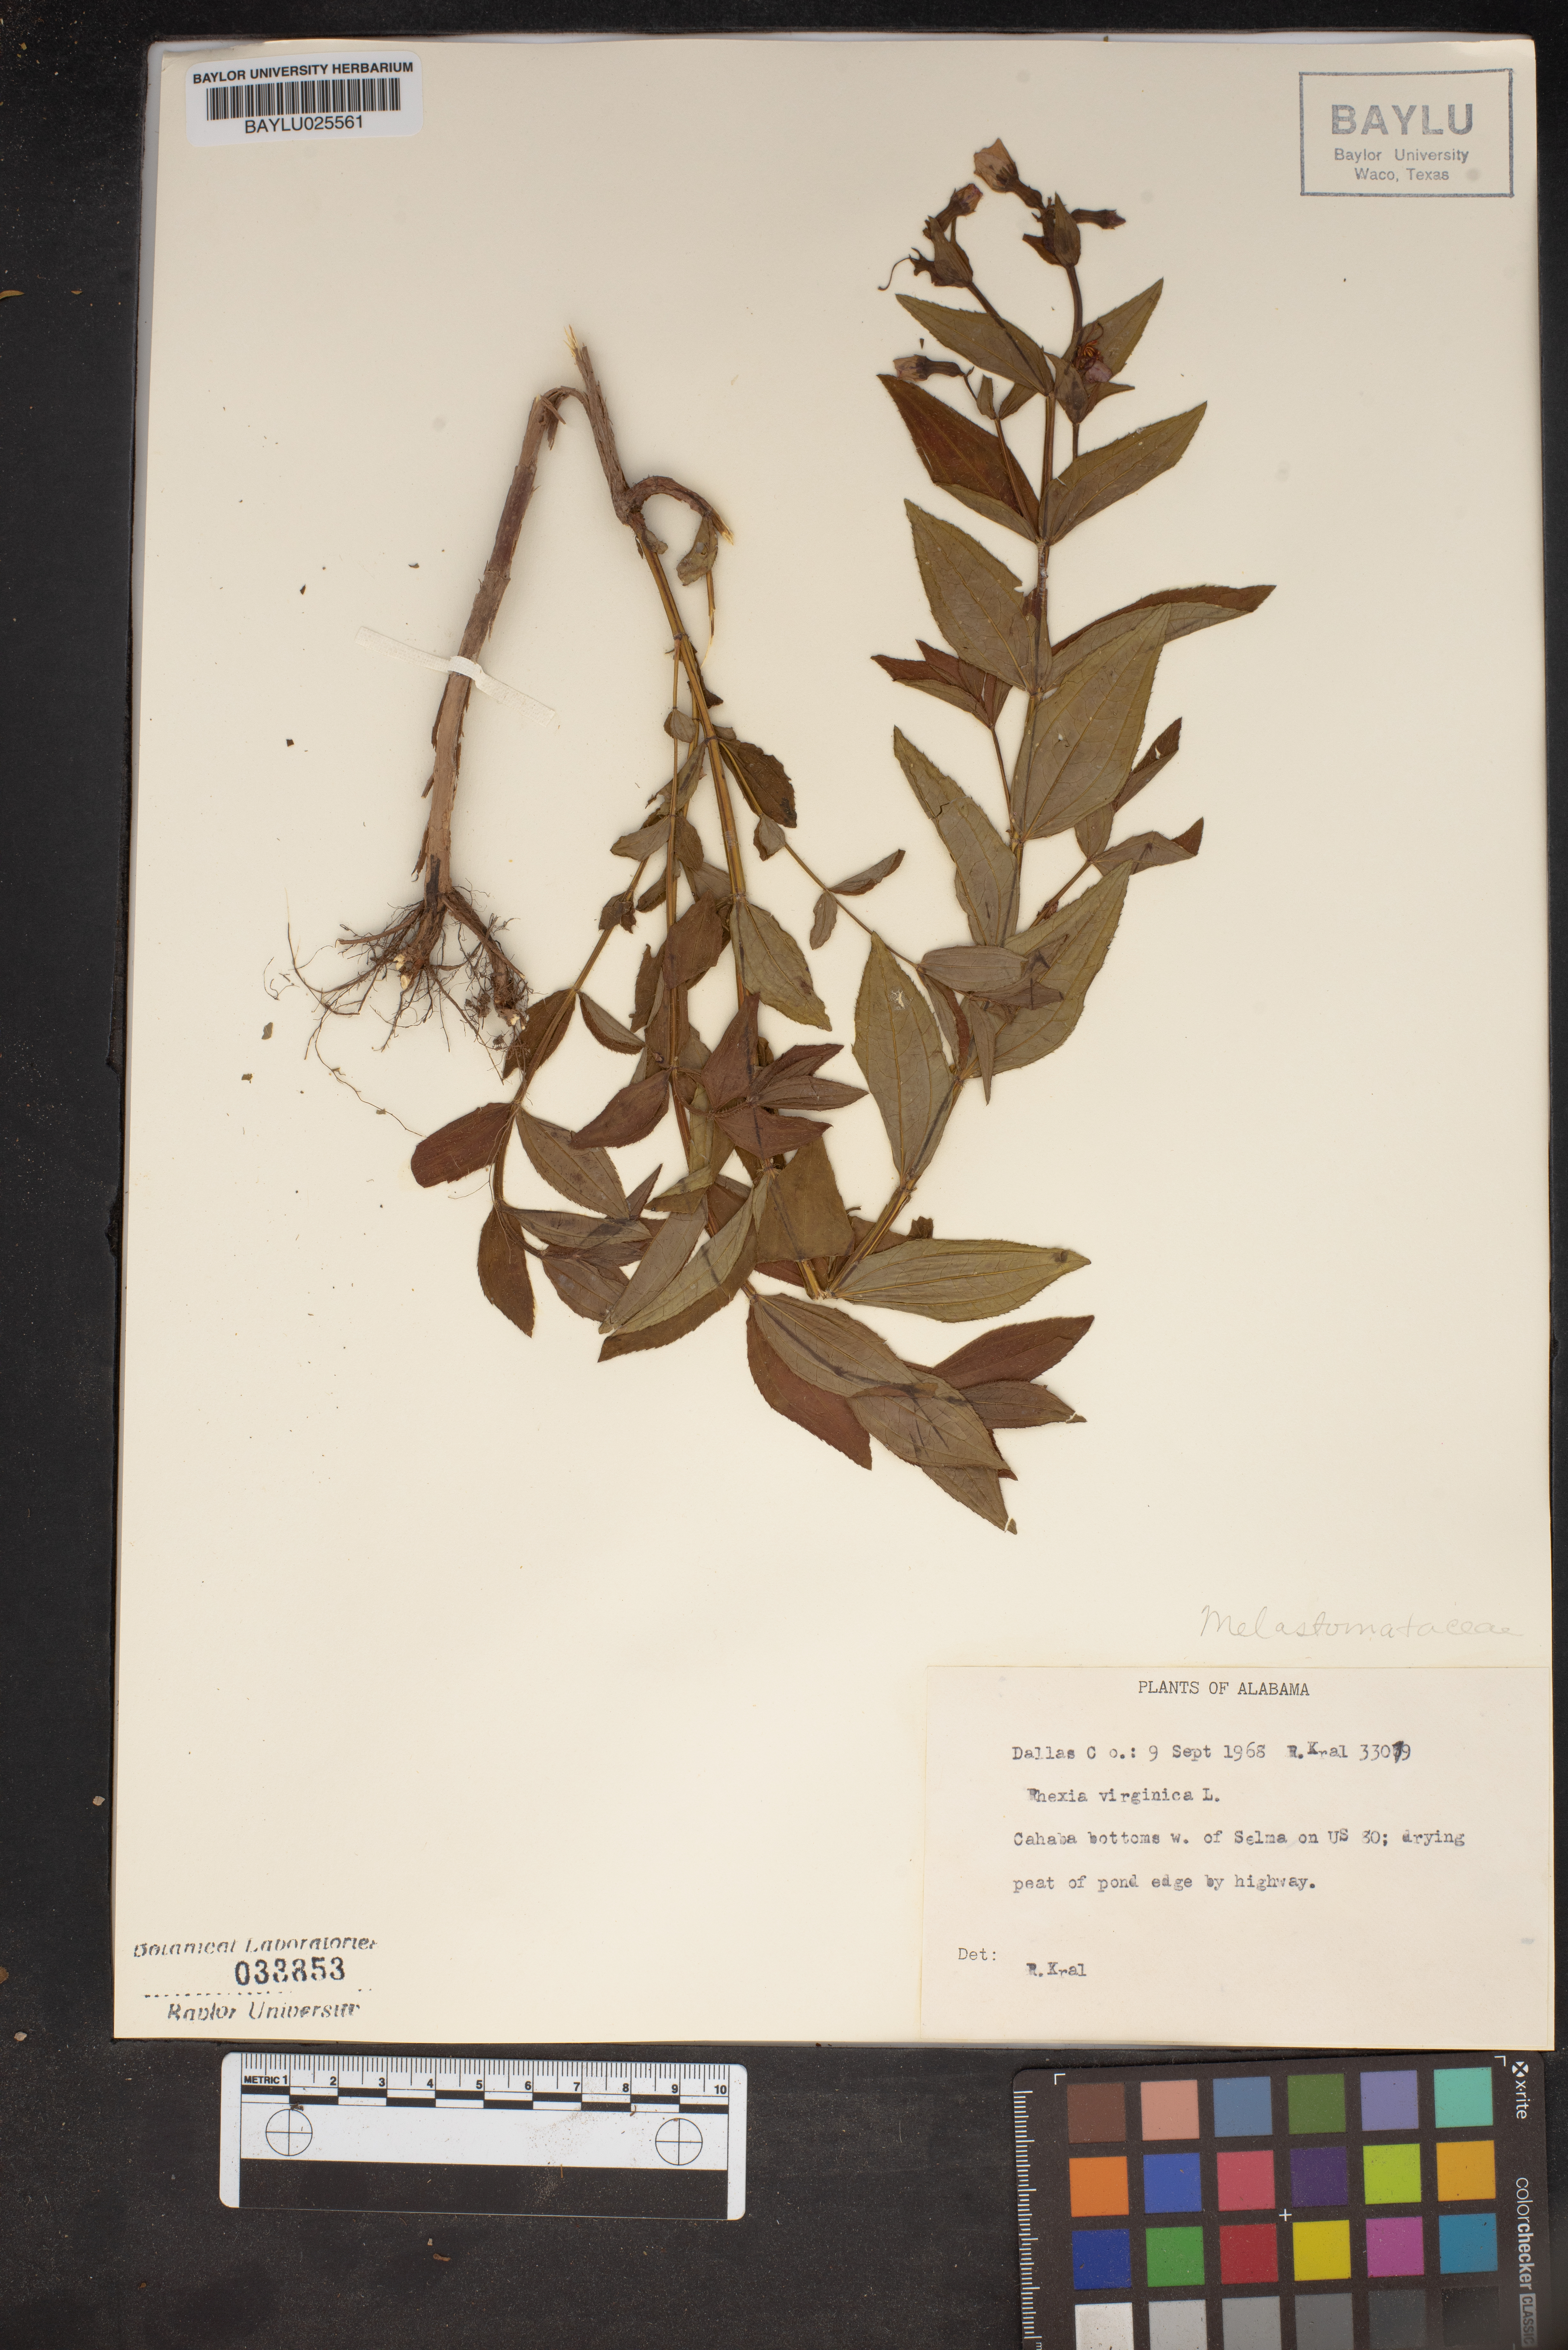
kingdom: Plantae
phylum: Tracheophyta
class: Magnoliopsida
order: Myrtales
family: Melastomataceae
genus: Rhexia
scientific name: Rhexia virginica
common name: Common meadow beauty
